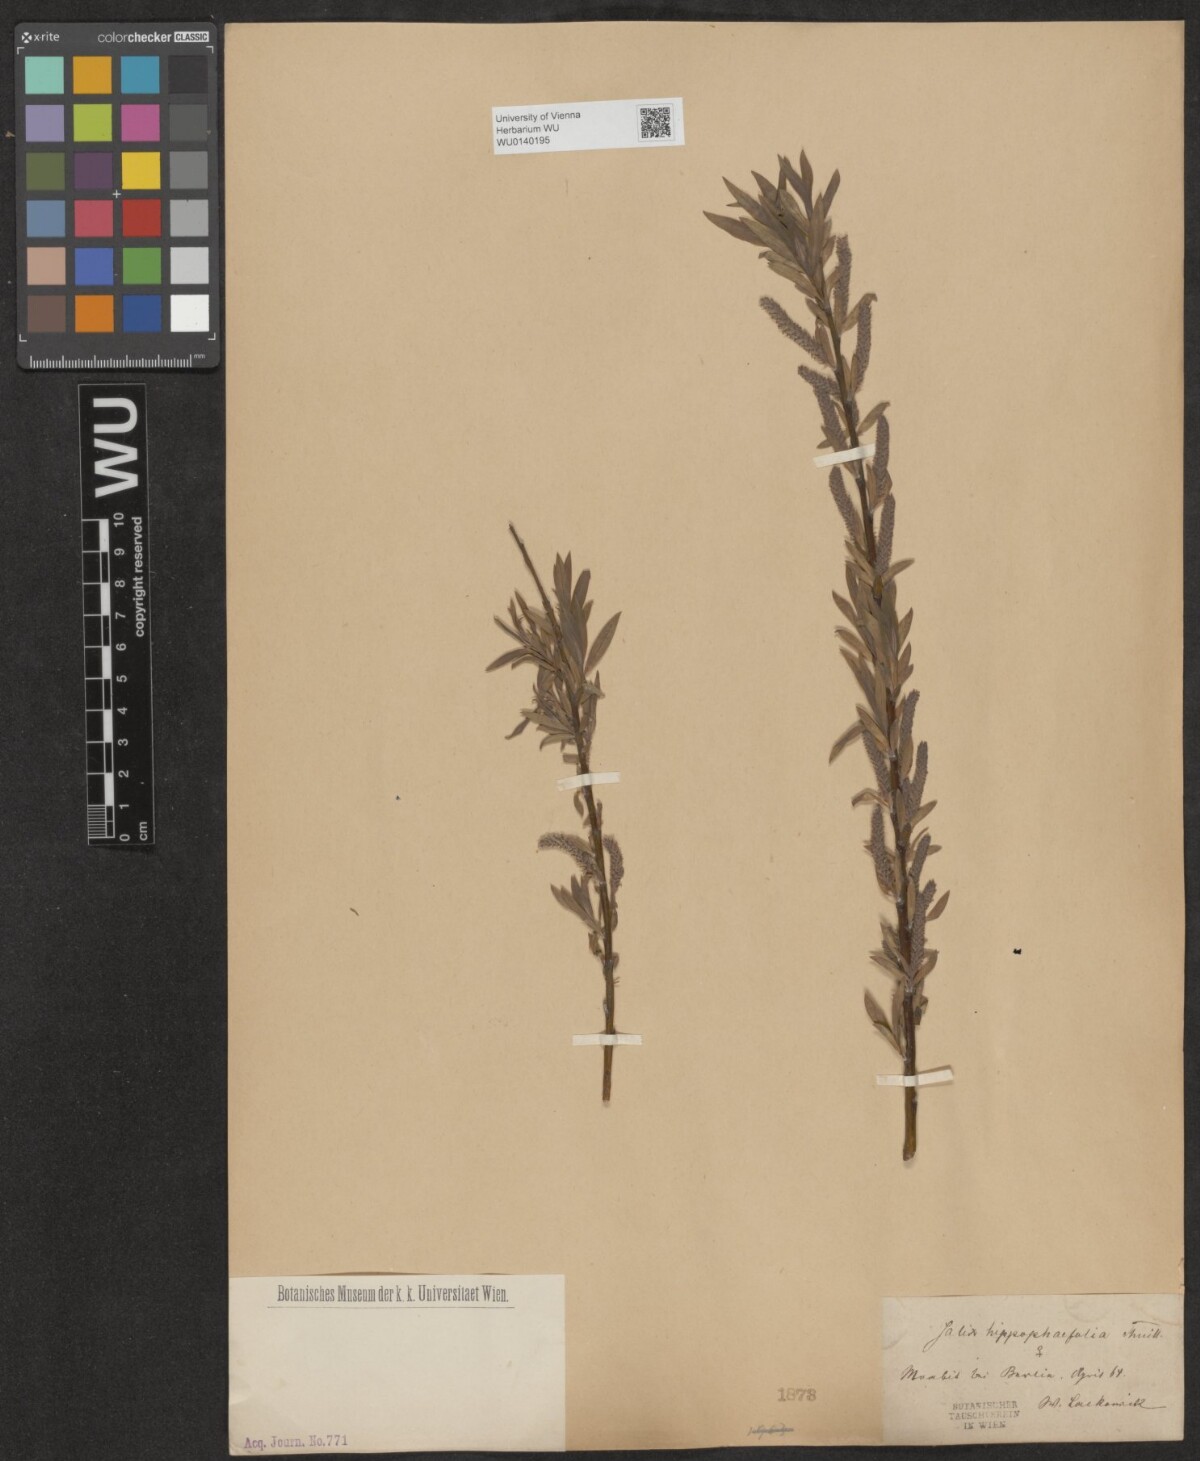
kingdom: Plantae
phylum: Tracheophyta
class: Magnoliopsida
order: Malpighiales
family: Salicaceae
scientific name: Salicaceae
